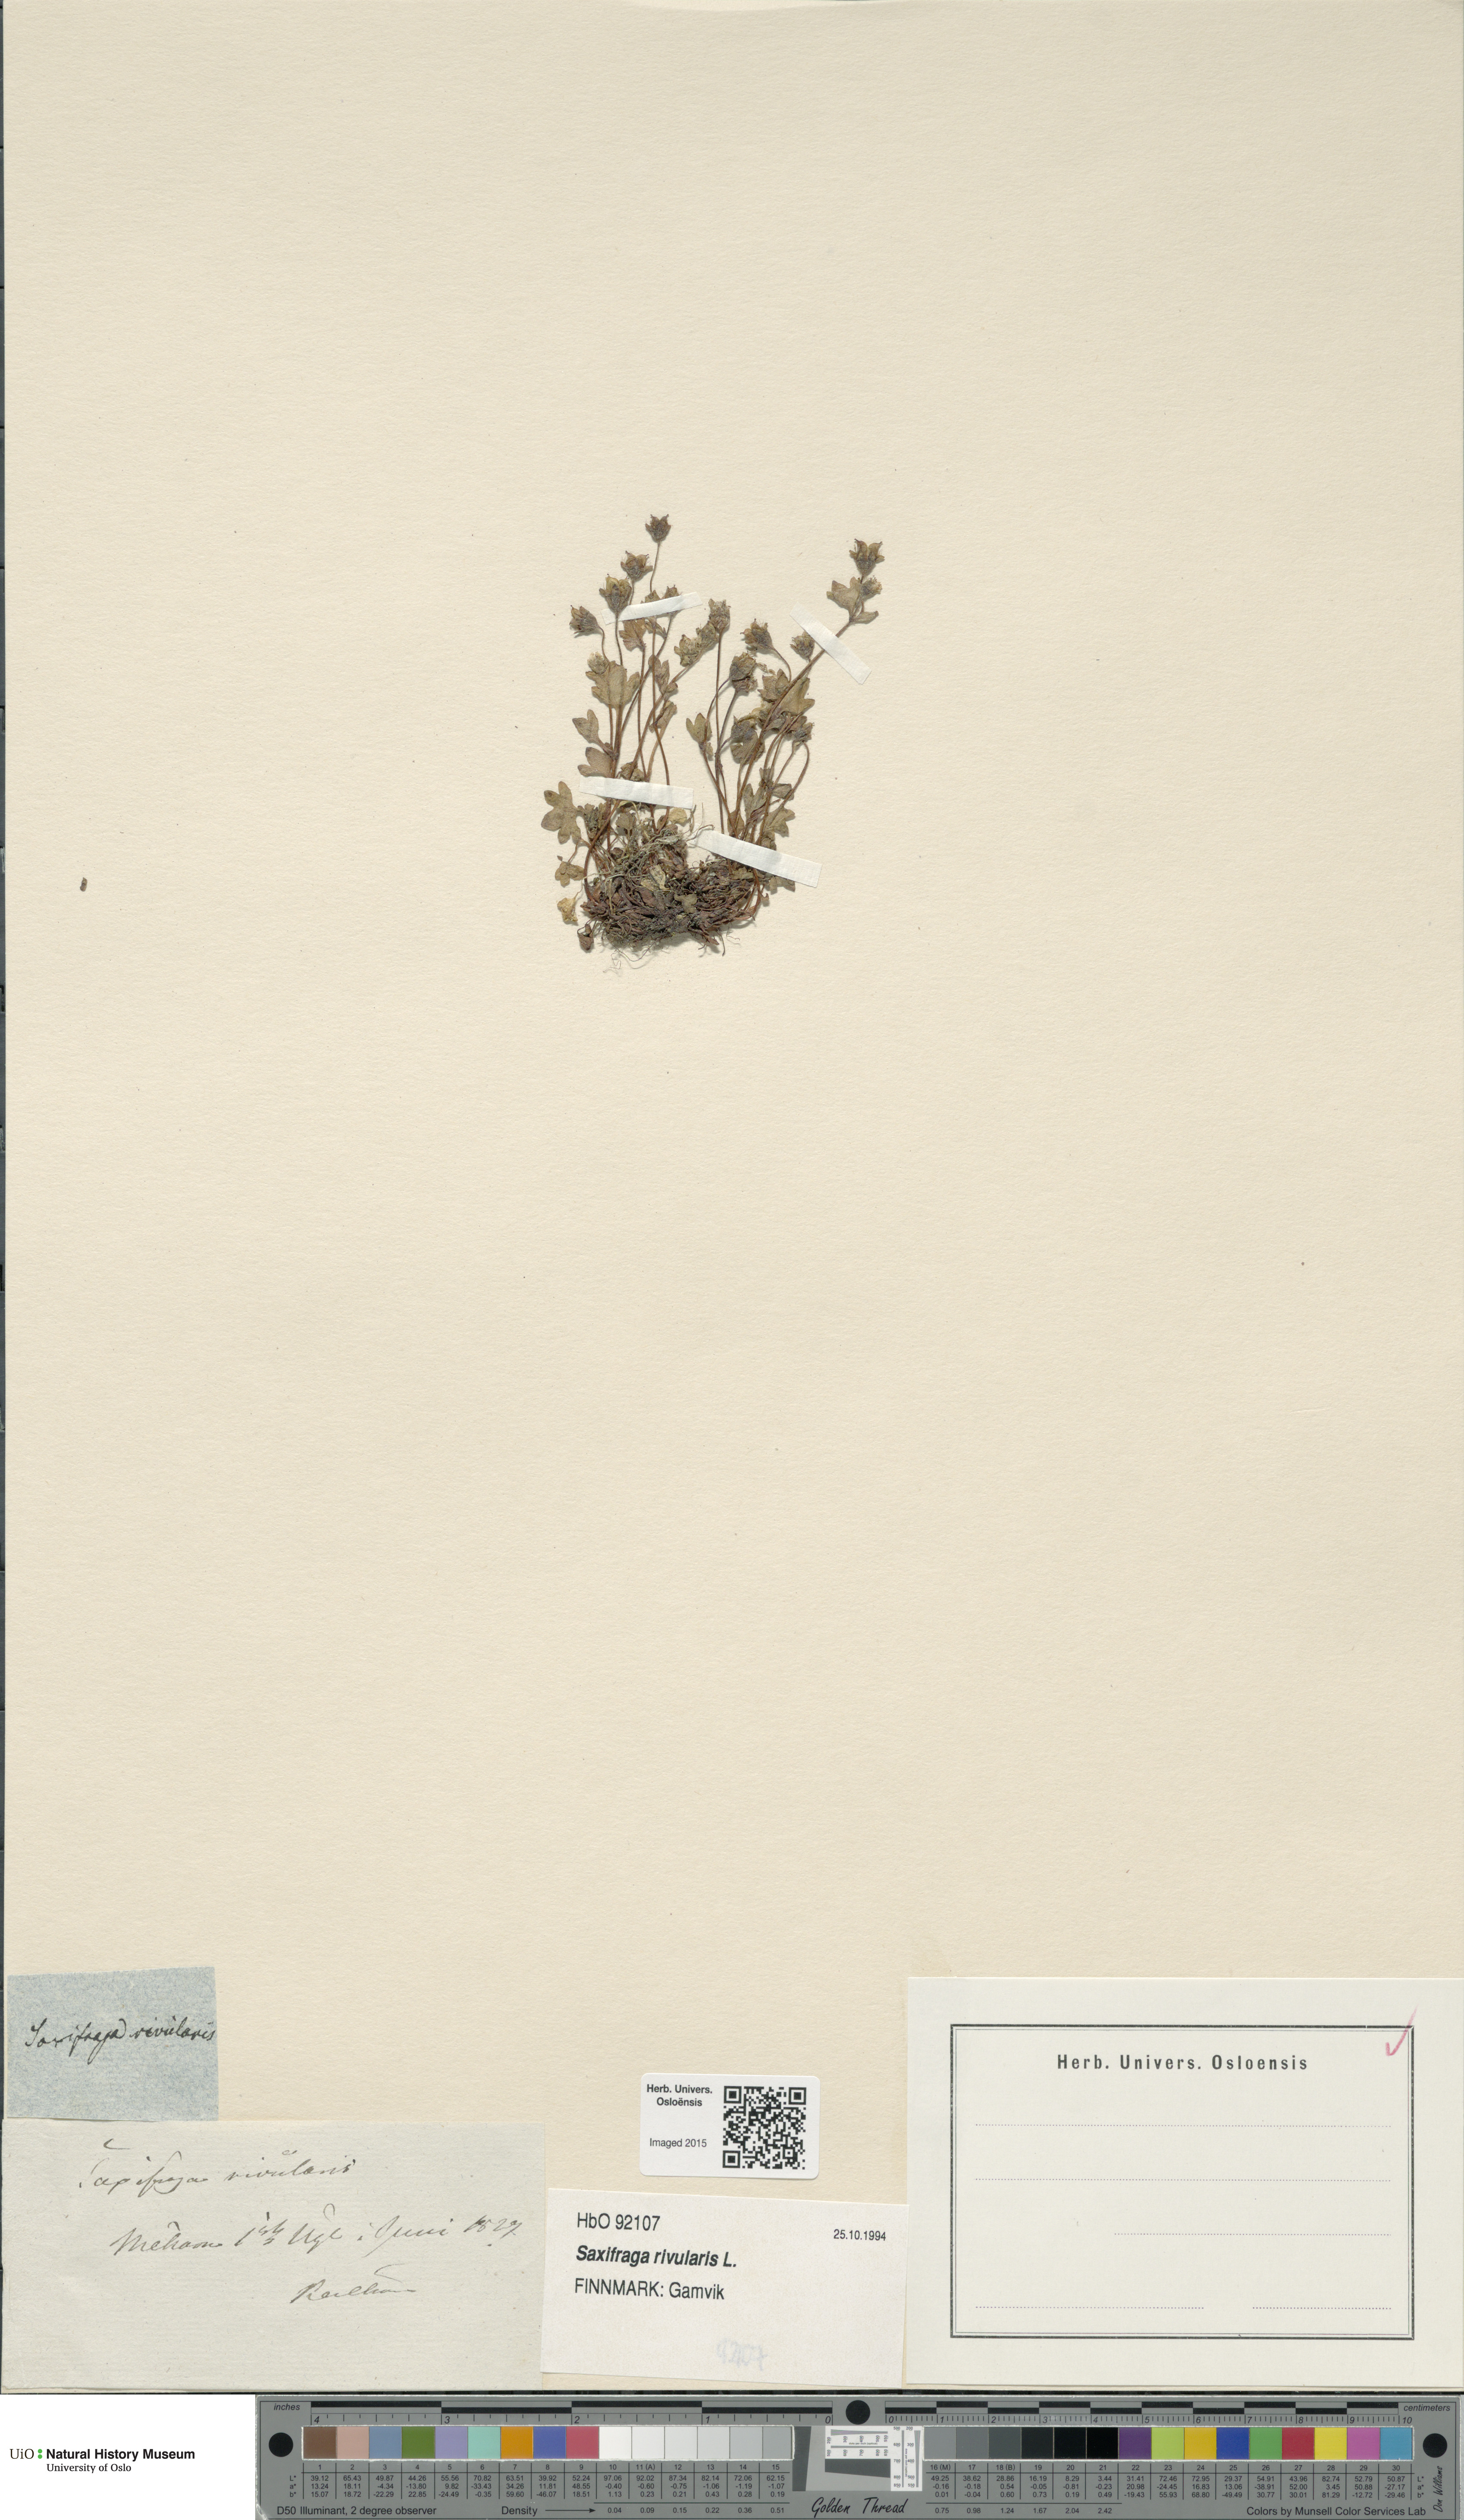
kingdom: Plantae
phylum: Tracheophyta
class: Magnoliopsida
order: Saxifragales
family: Saxifragaceae
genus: Saxifraga
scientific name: Saxifraga rivularis
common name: Highland saxifrage
